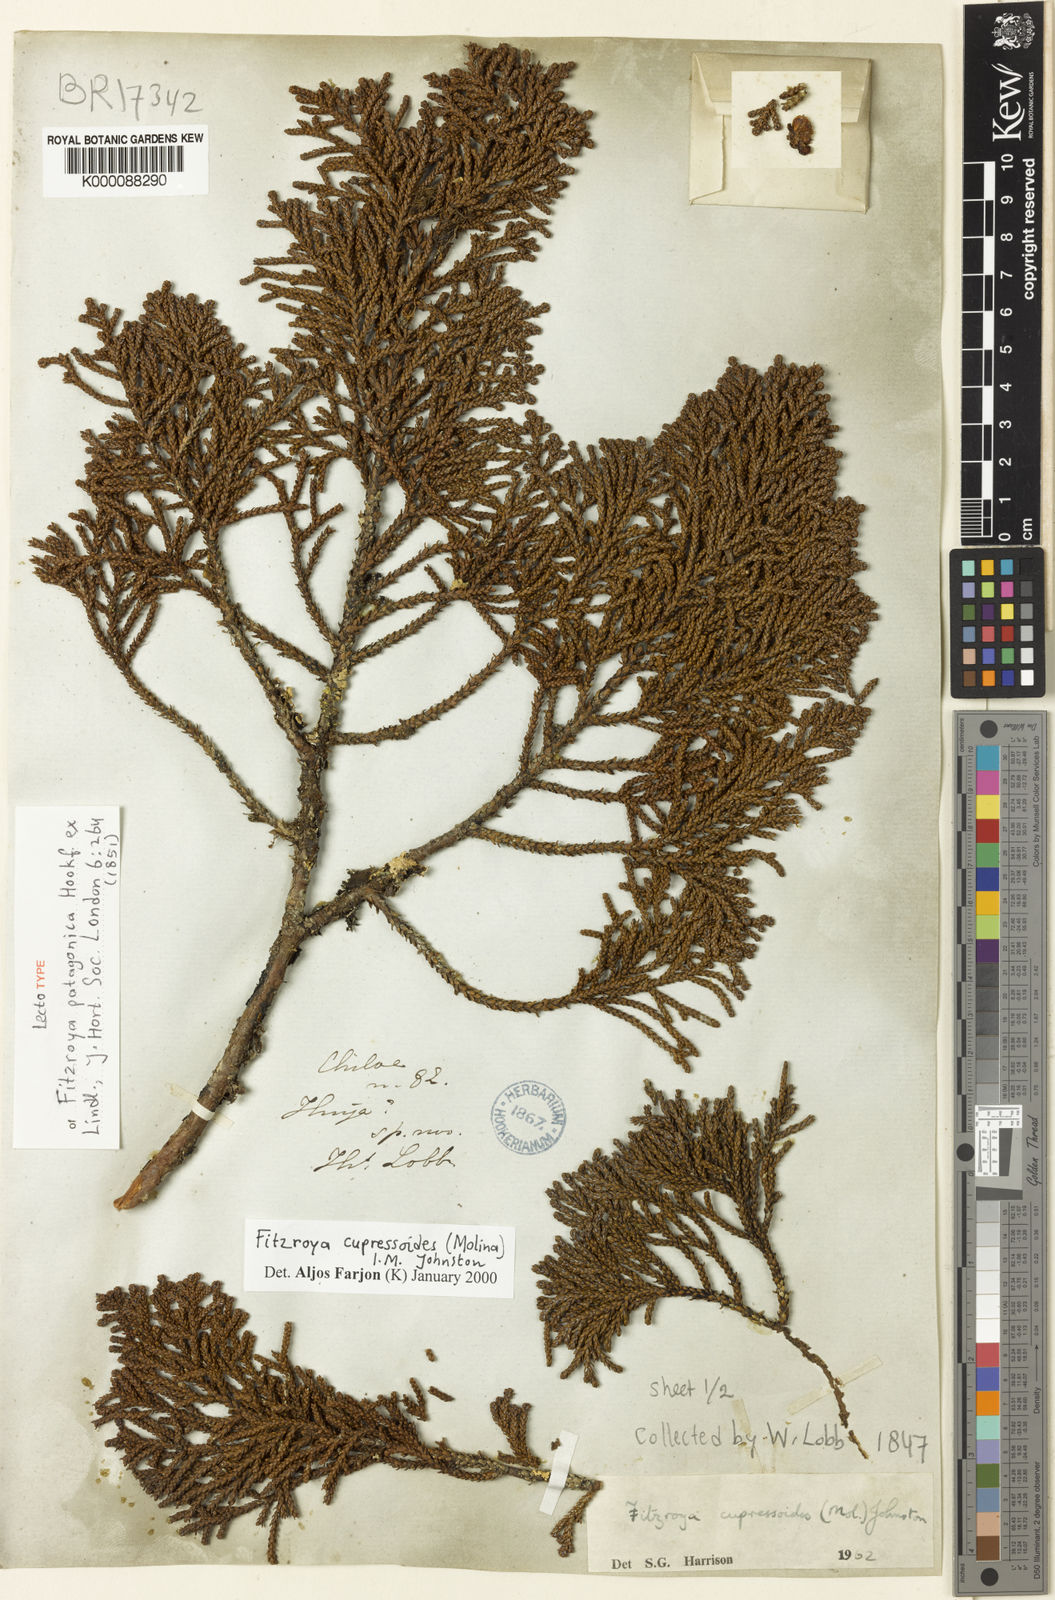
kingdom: Plantae
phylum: Tracheophyta
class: Pinopsida
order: Pinales
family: Cupressaceae
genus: Fitzroya
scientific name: Fitzroya cupressoides
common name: Patagonian cypress
